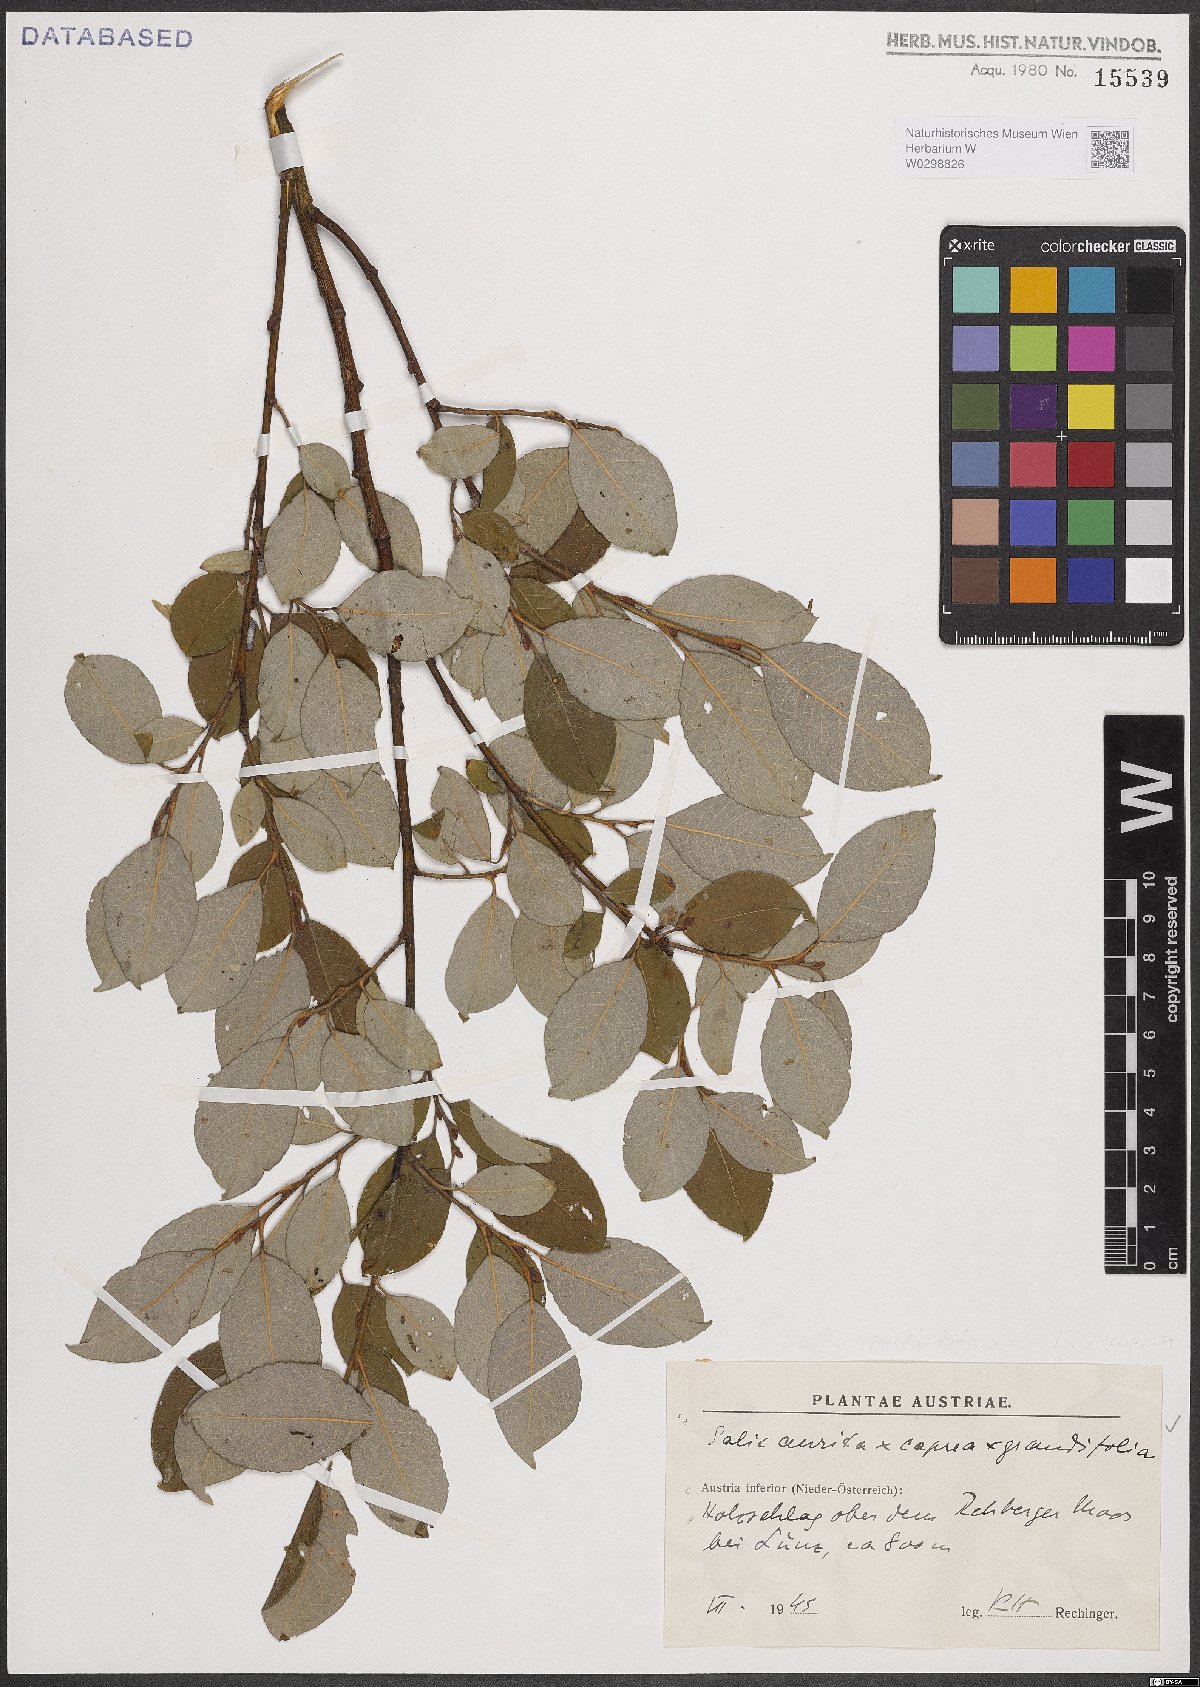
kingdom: Plantae
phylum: Tracheophyta
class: Magnoliopsida
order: Malpighiales
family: Salicaceae
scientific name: Salicaceae
